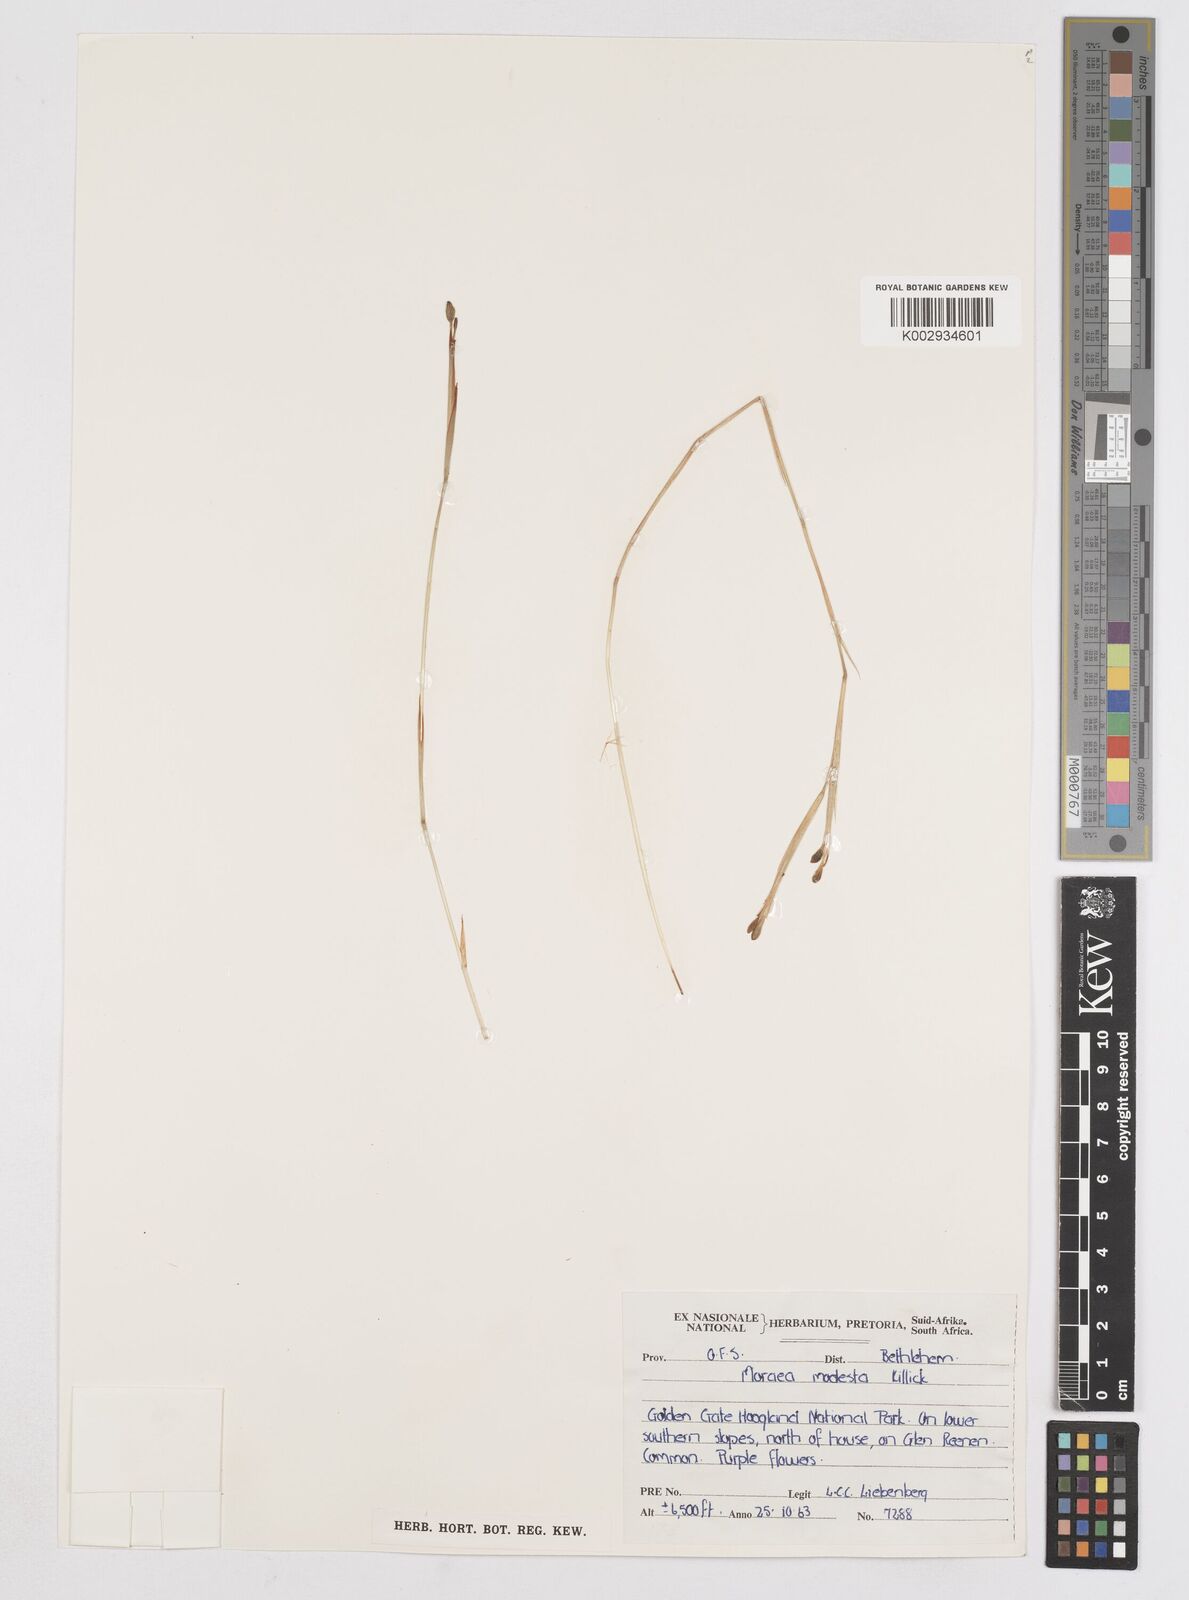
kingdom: Plantae
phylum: Tracheophyta
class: Liliopsida
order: Asparagales
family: Iridaceae
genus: Moraea
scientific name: Moraea modesta
